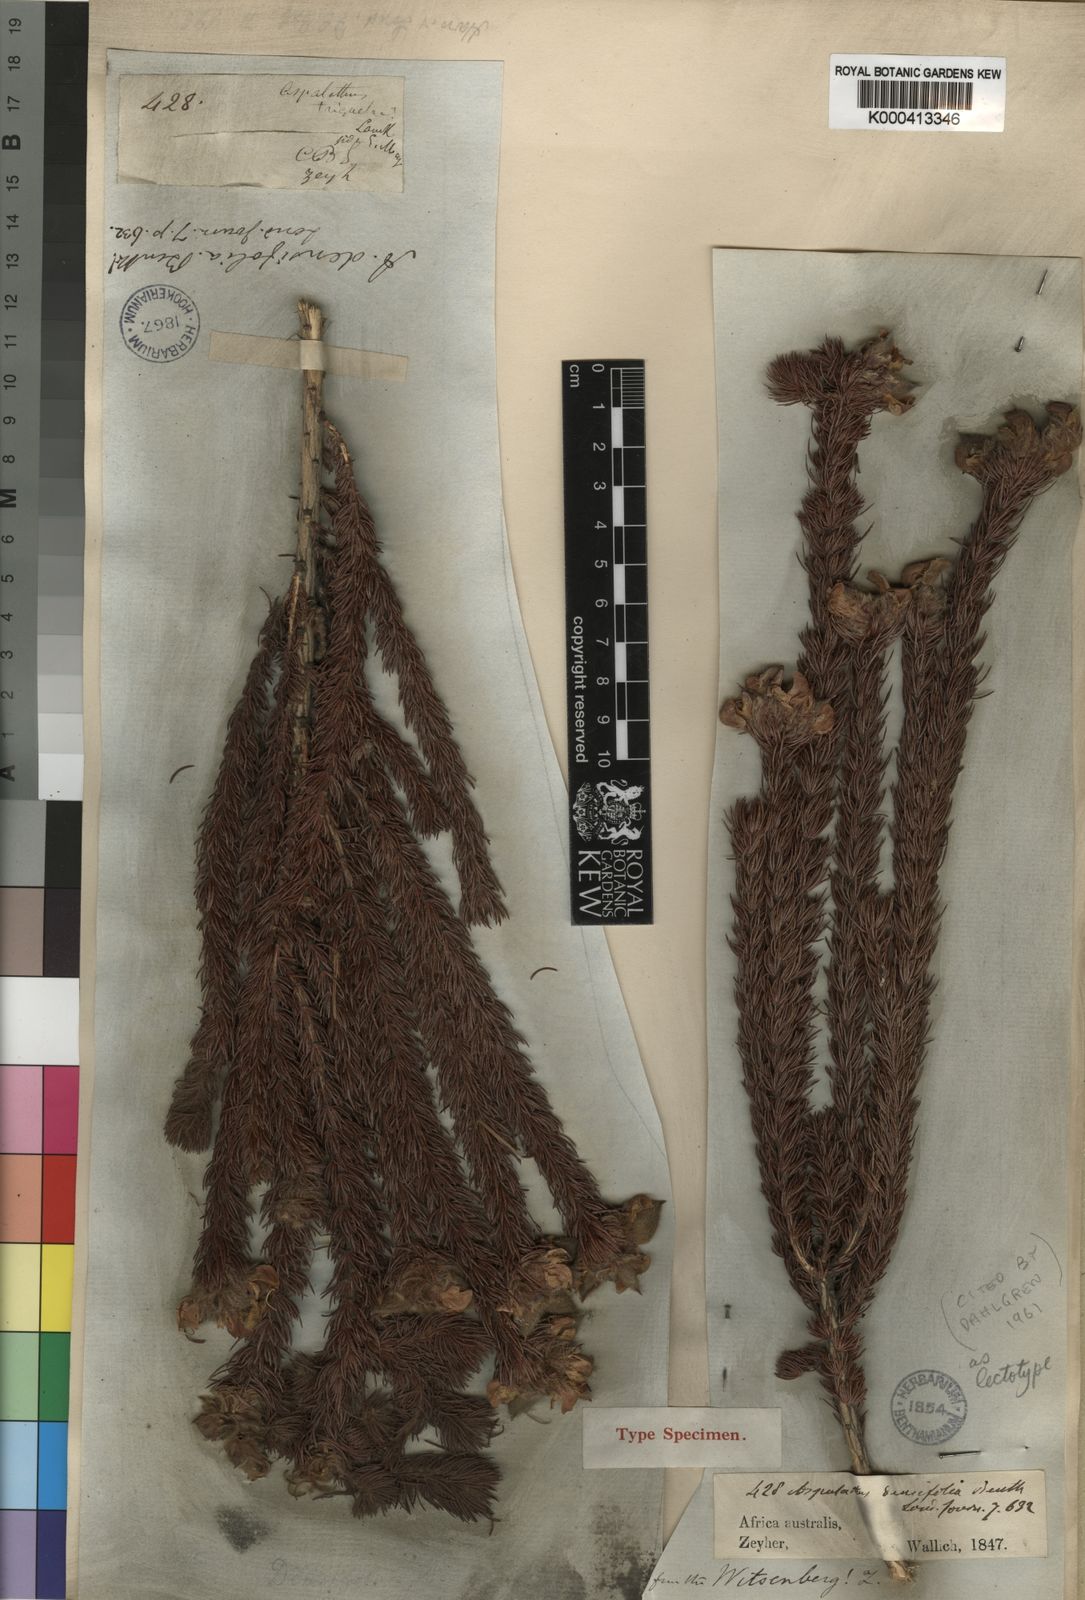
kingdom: Plantae
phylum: Tracheophyta
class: Magnoliopsida
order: Fabales
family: Fabaceae
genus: Aspalathus
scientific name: Aspalathus densifolia
